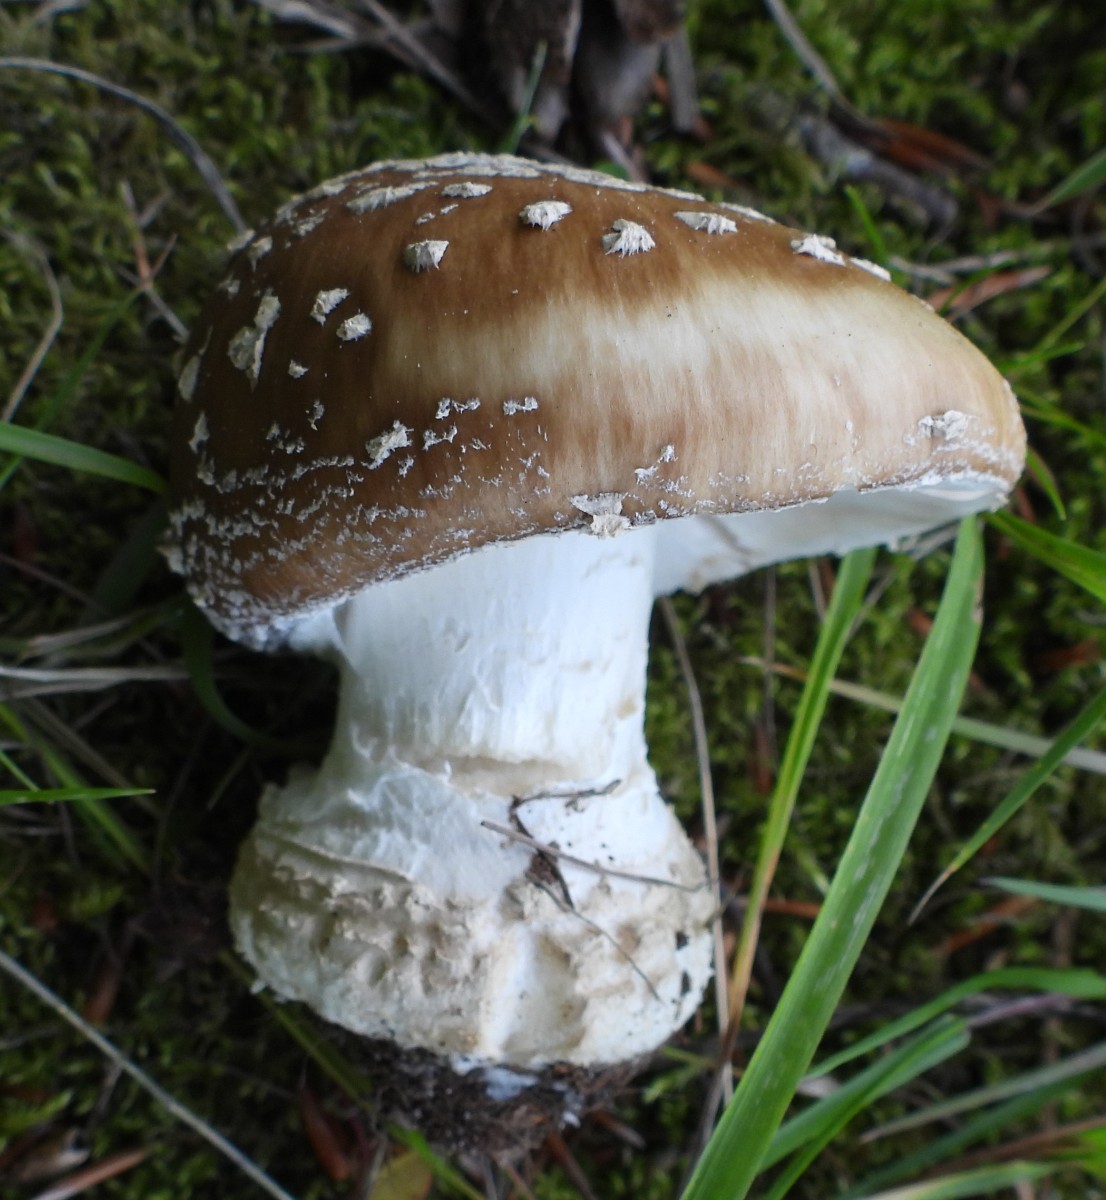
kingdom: Fungi
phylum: Basidiomycota
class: Agaricomycetes
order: Agaricales
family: Amanitaceae
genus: Amanita
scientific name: Amanita pantherina
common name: panter-fluesvamp
